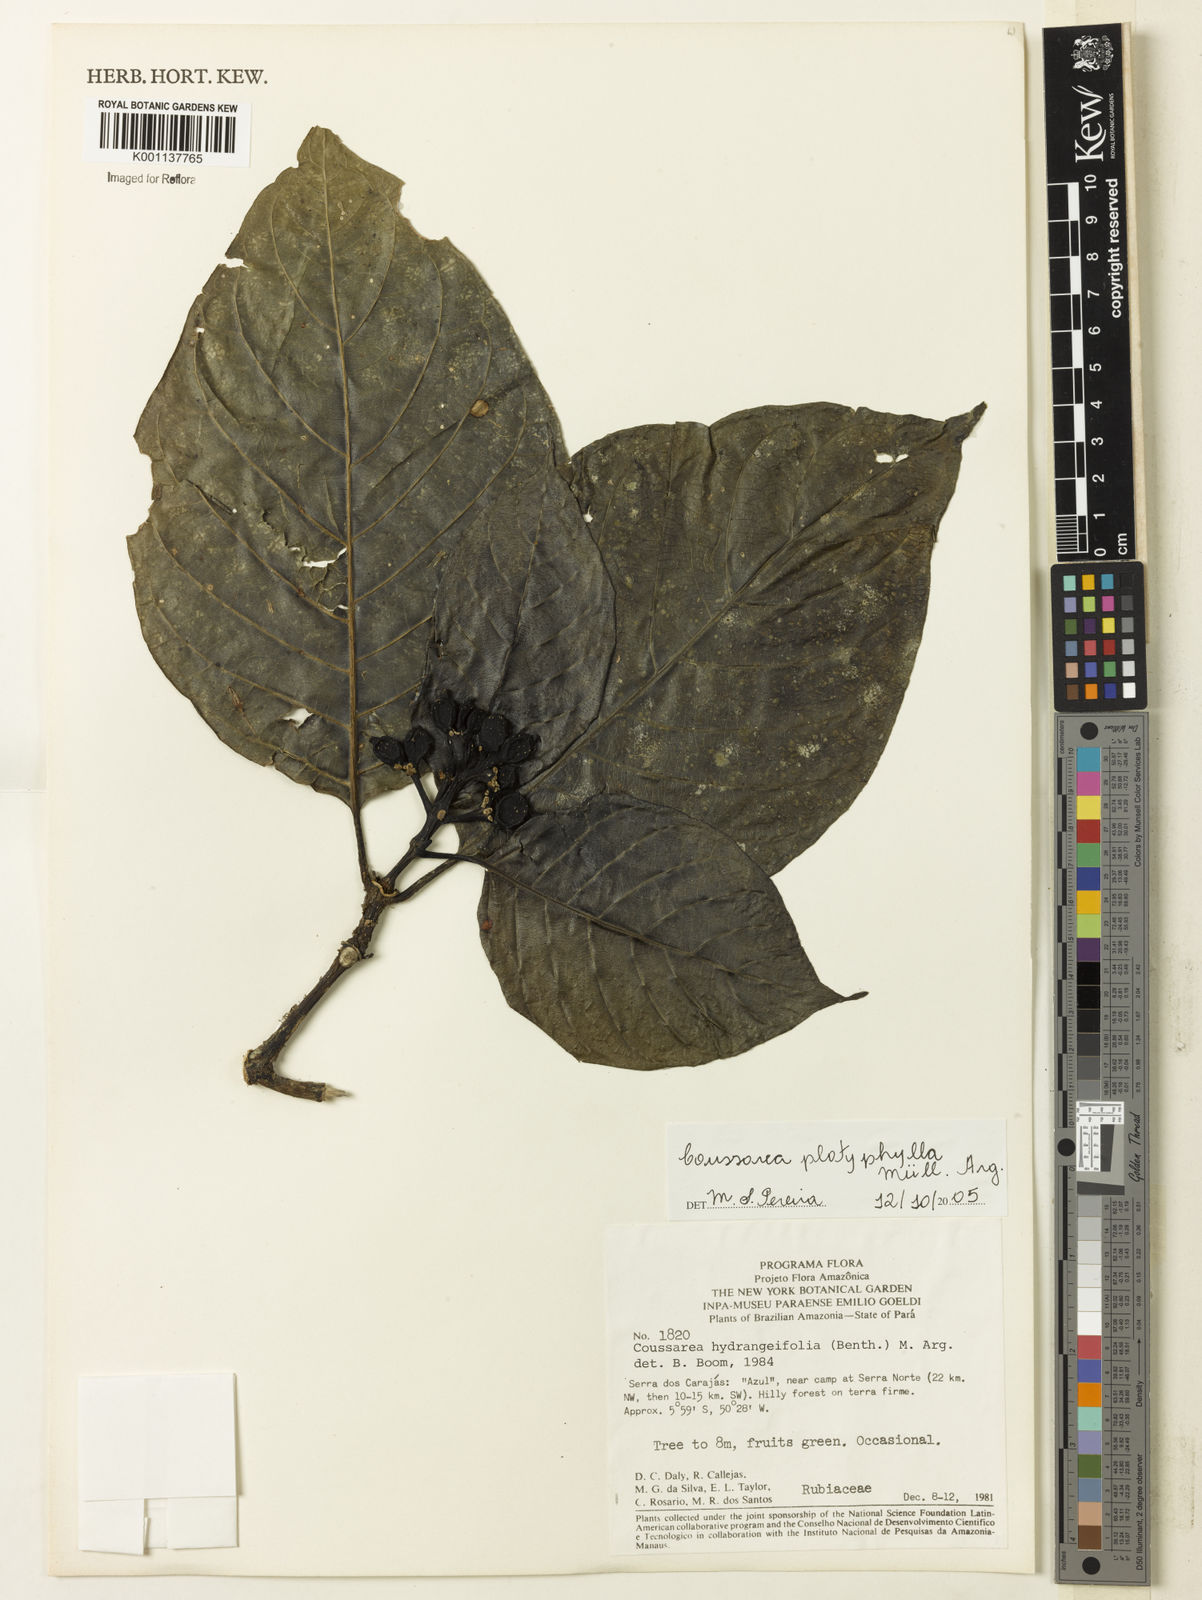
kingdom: Plantae
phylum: Tracheophyta
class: Magnoliopsida
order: Gentianales
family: Rubiaceae
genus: Coussarea
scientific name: Coussarea
